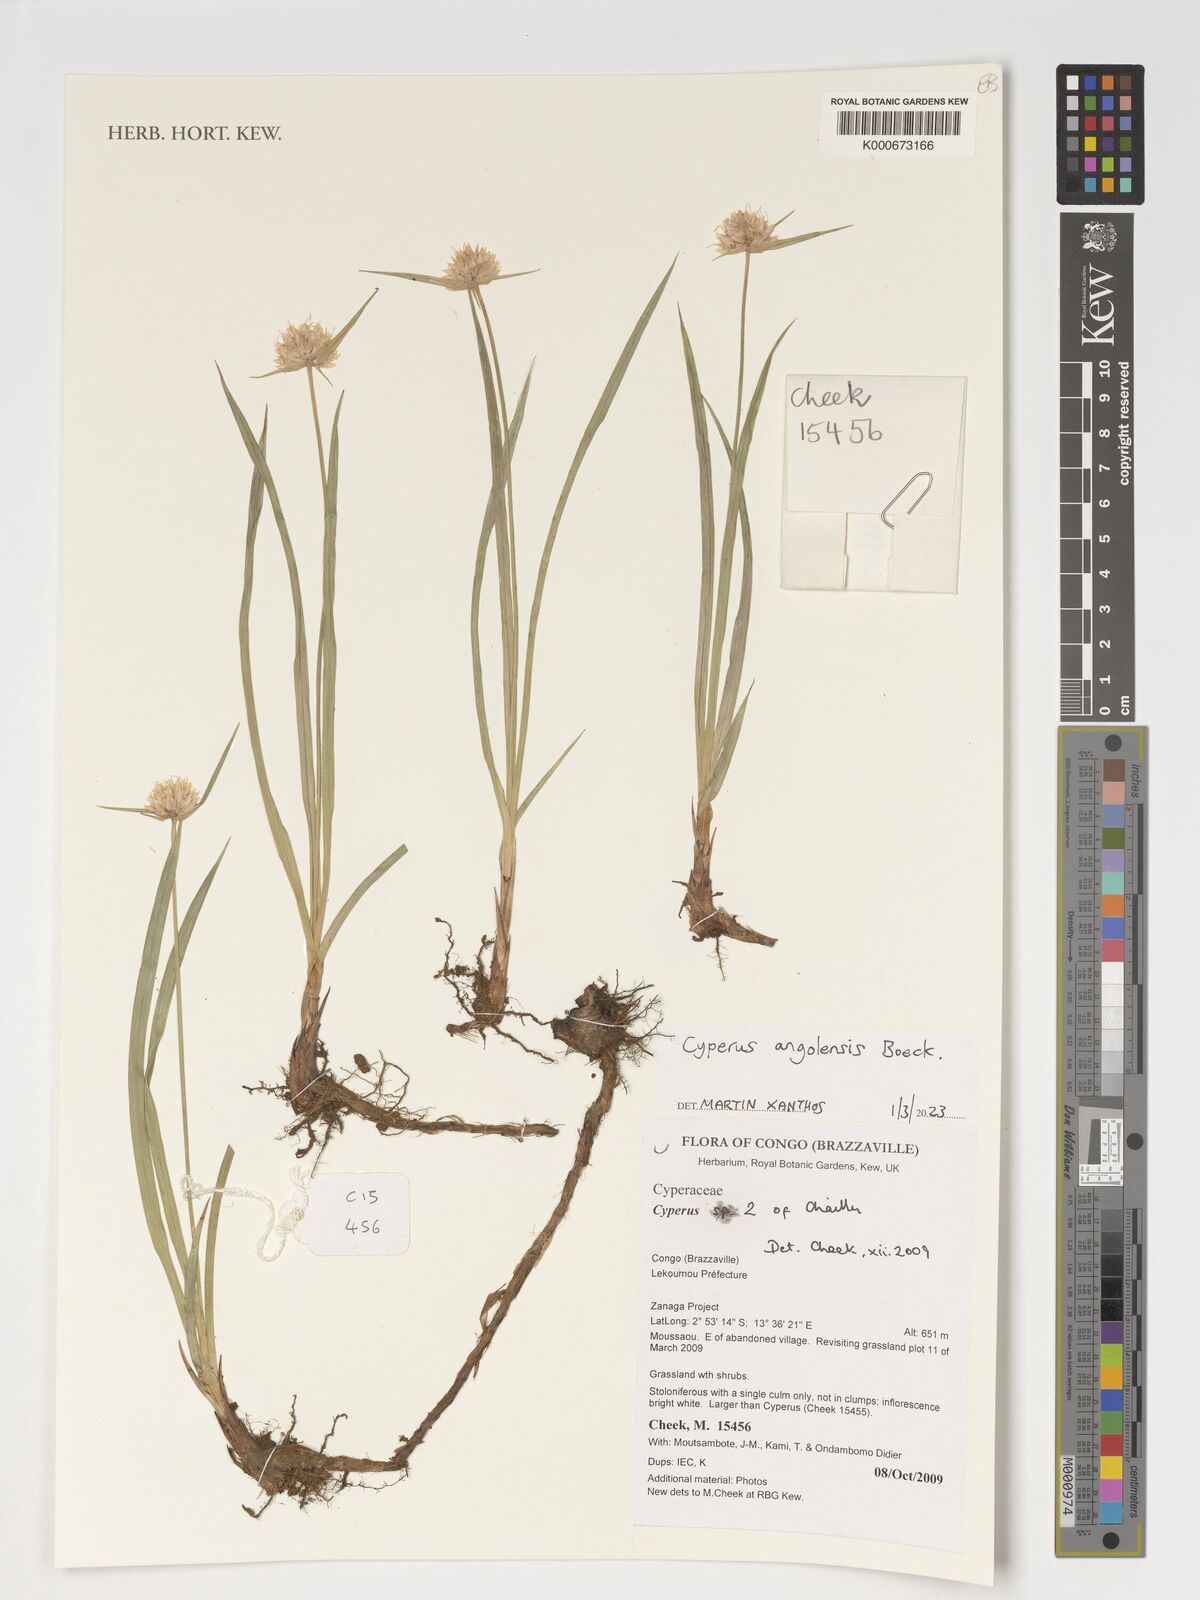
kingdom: Plantae
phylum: Tracheophyta
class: Liliopsida
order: Poales
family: Cyperaceae
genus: Cyperus
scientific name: Cyperus angolensis
